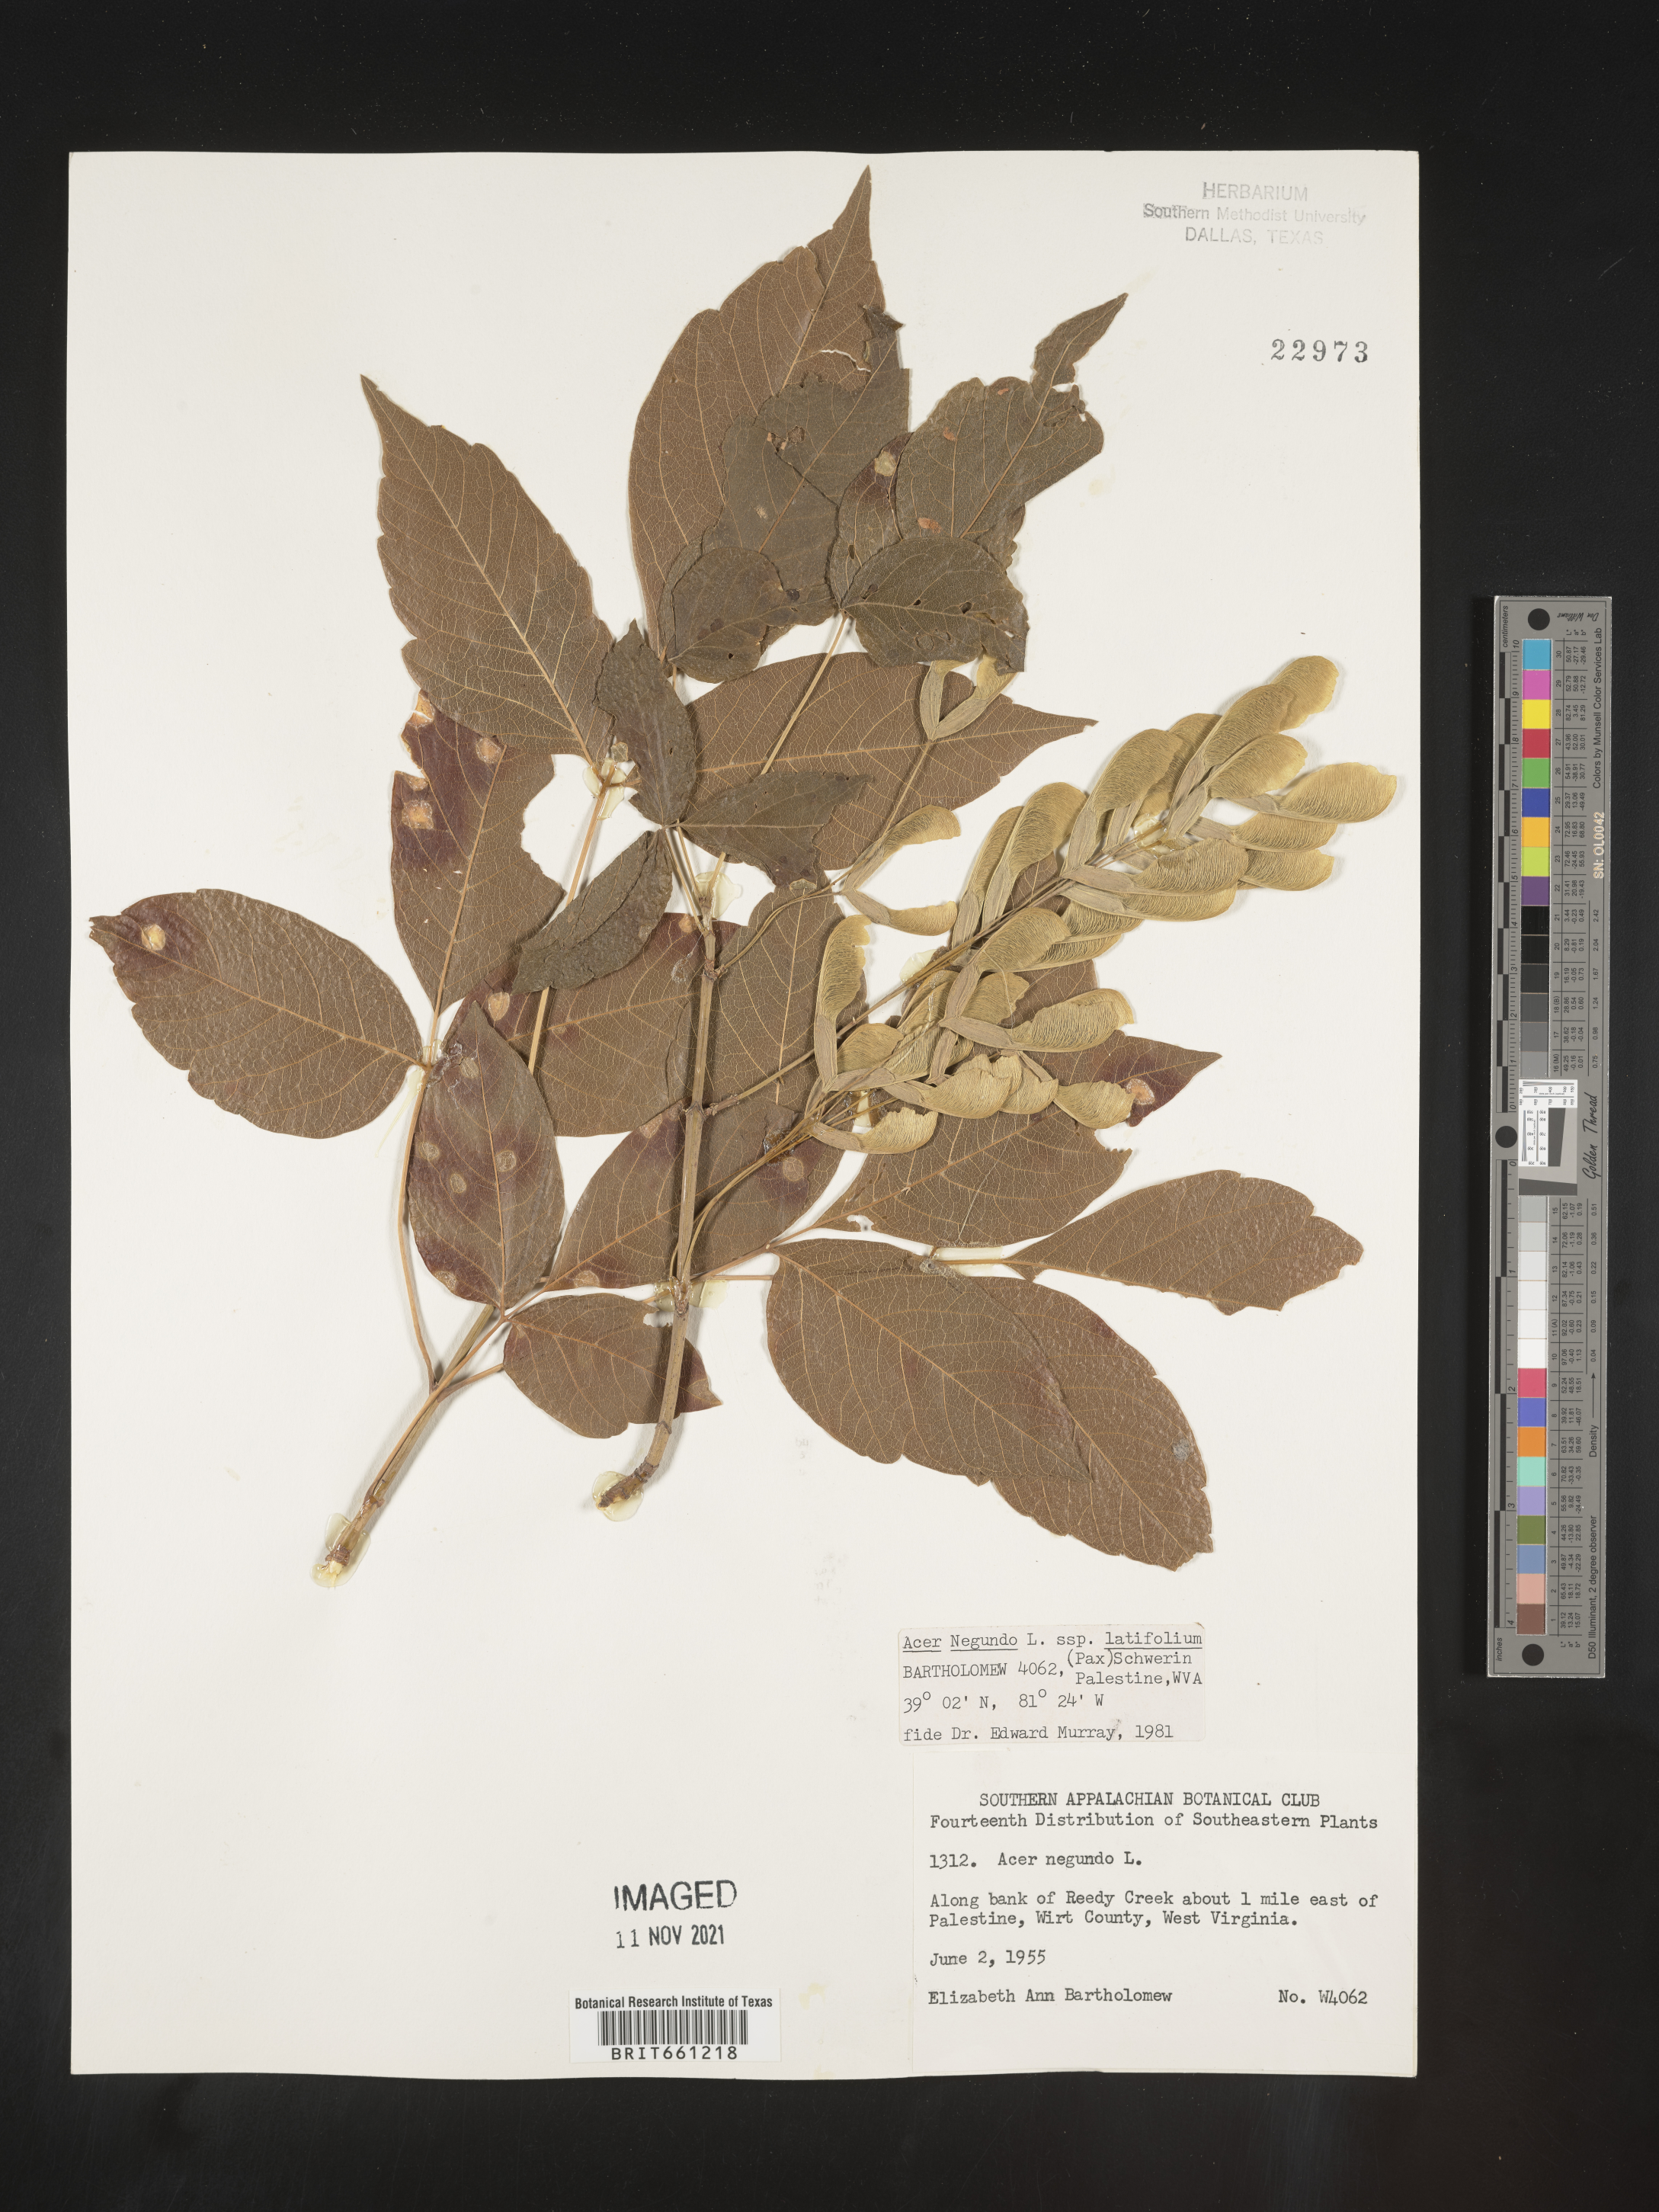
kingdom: Plantae
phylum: Tracheophyta
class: Magnoliopsida
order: Sapindales
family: Sapindaceae
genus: Acer
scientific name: Acer negundo
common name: Ashleaf maple
